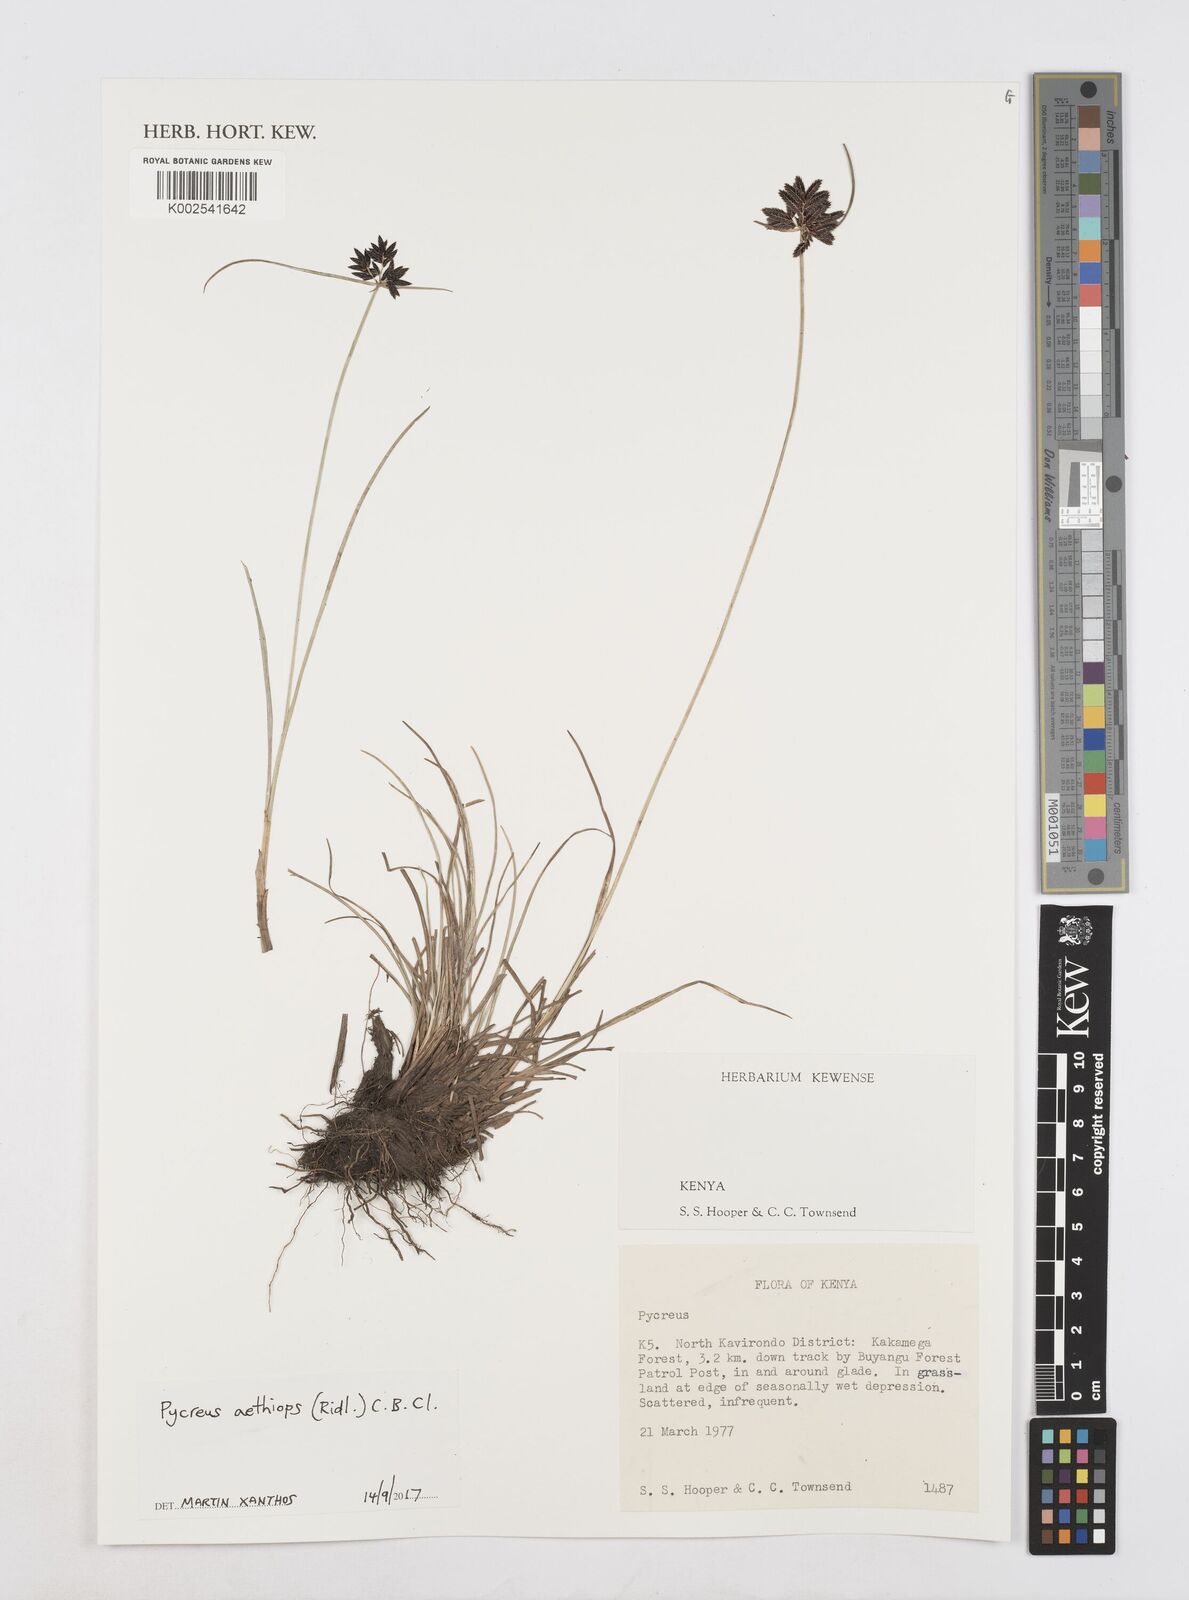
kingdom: Plantae
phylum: Tracheophyta
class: Liliopsida
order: Poales
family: Cyperaceae
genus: Cyperus
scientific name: Cyperus aethiops
